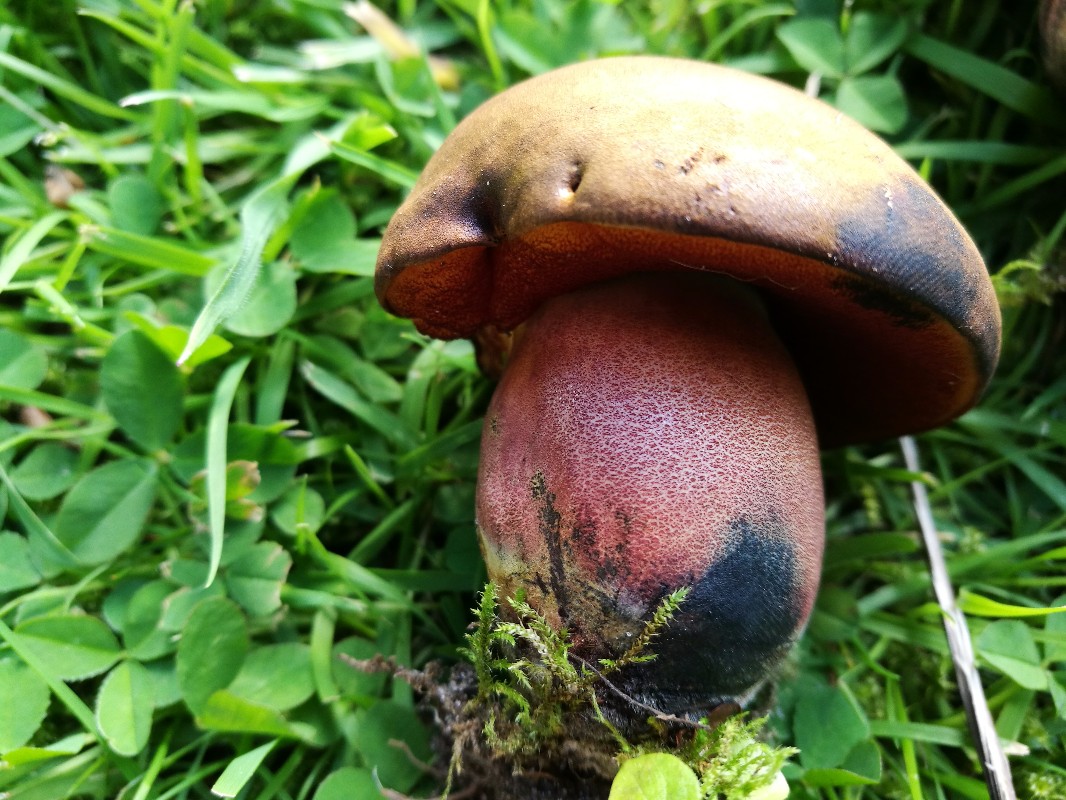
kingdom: Fungi
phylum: Basidiomycota
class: Agaricomycetes
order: Boletales
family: Boletaceae
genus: Neoboletus
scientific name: Neoboletus erythropus
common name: punktstokket indigorørhat
